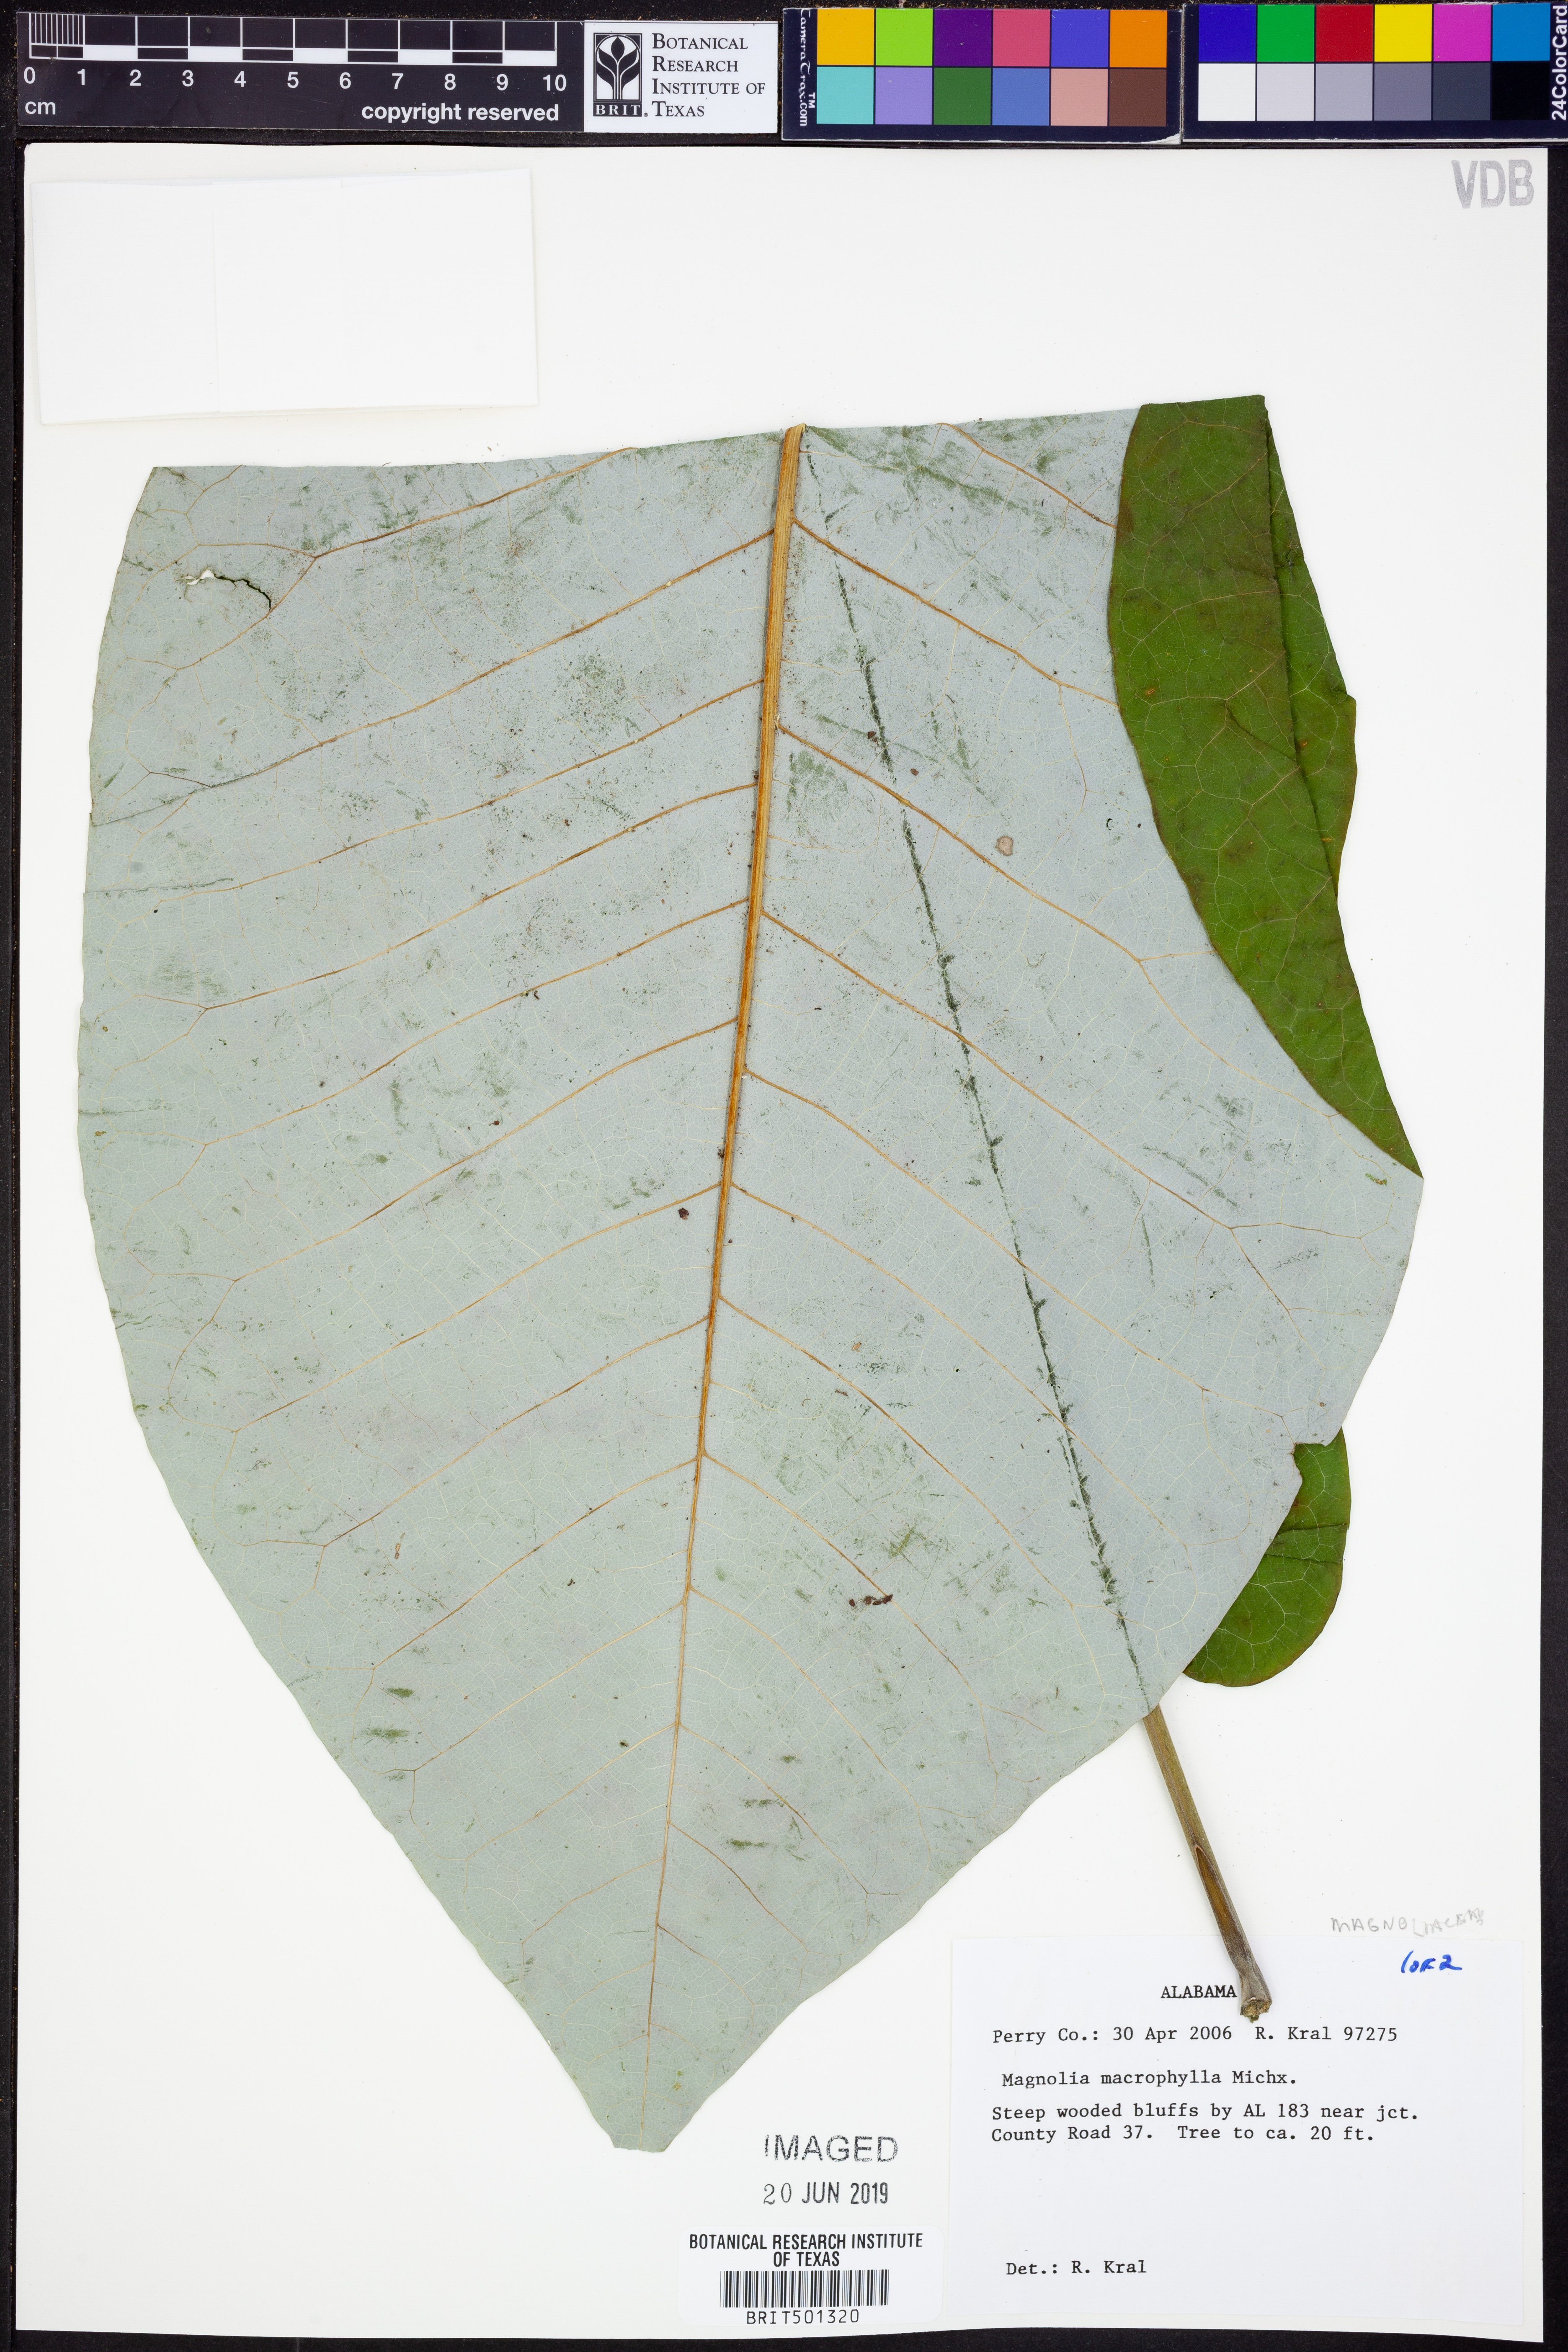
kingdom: Plantae
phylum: Tracheophyta
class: Magnoliopsida
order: Magnoliales
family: Magnoliaceae
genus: Magnolia
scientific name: Magnolia macrophylla
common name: Big-leaf magnolia
